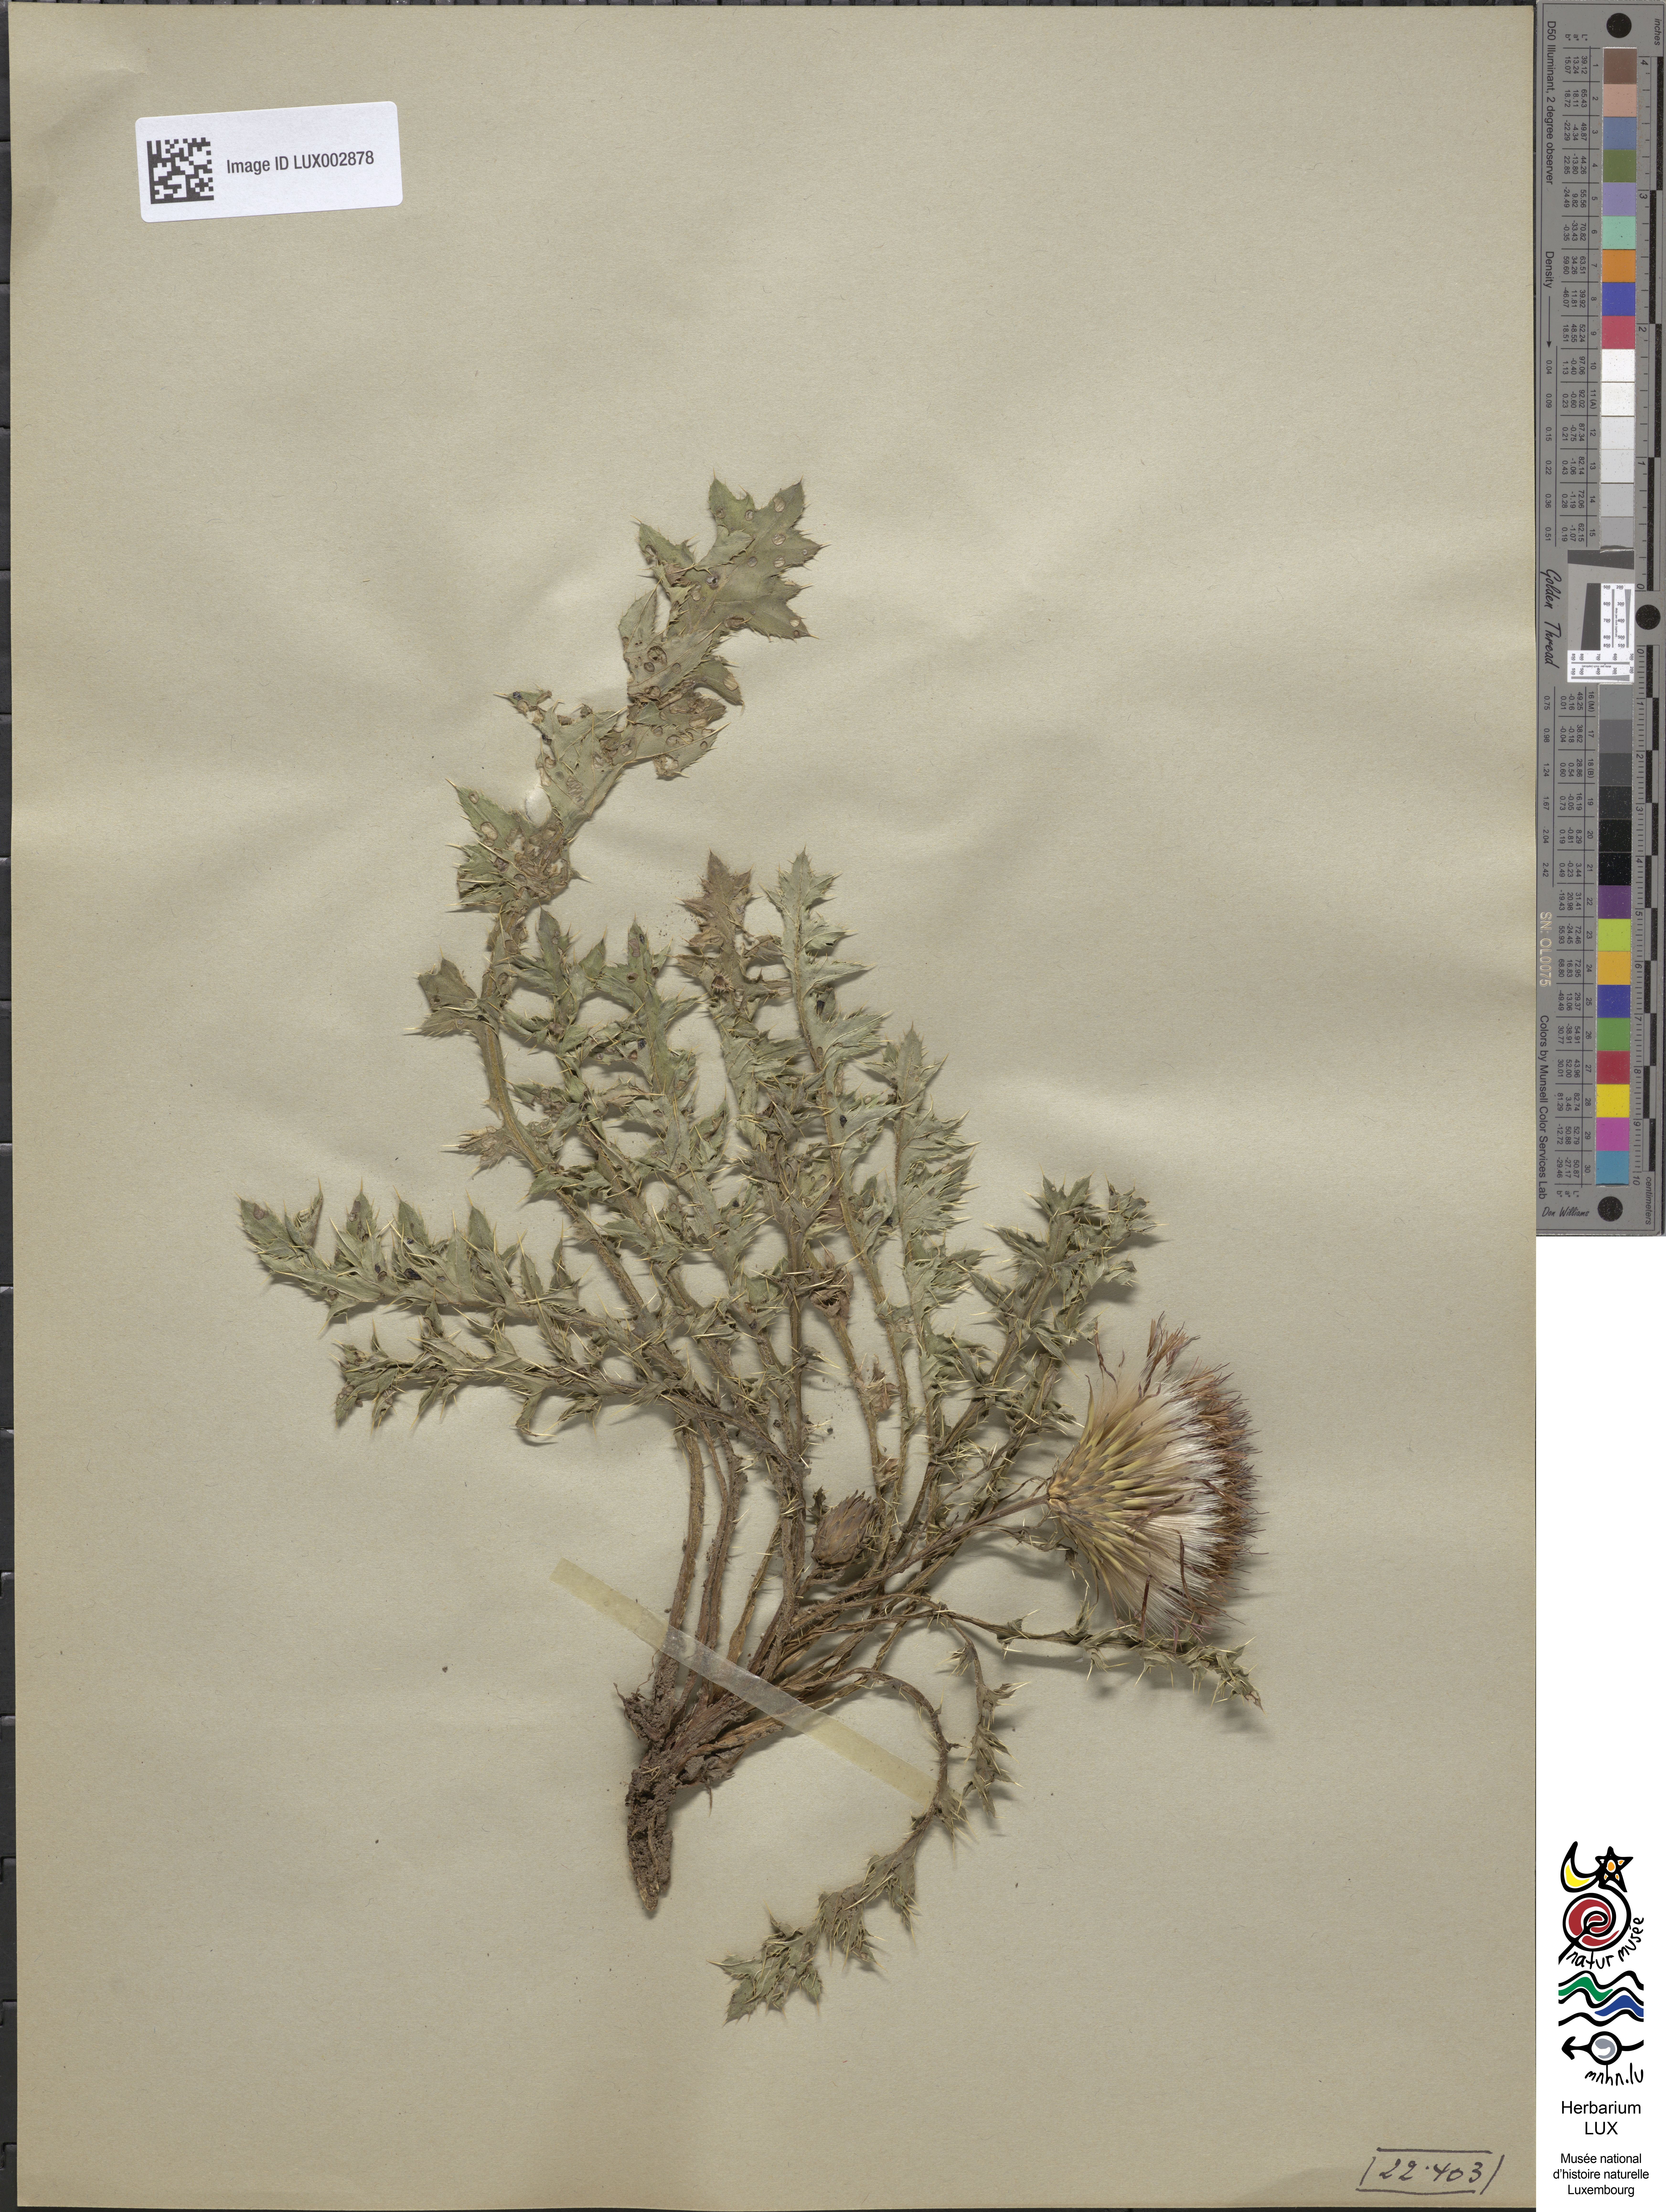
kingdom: Plantae
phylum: Tracheophyta
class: Magnoliopsida
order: Asterales
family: Asteraceae
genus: Cirsium
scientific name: Cirsium acaule
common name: Dwarf thistle
